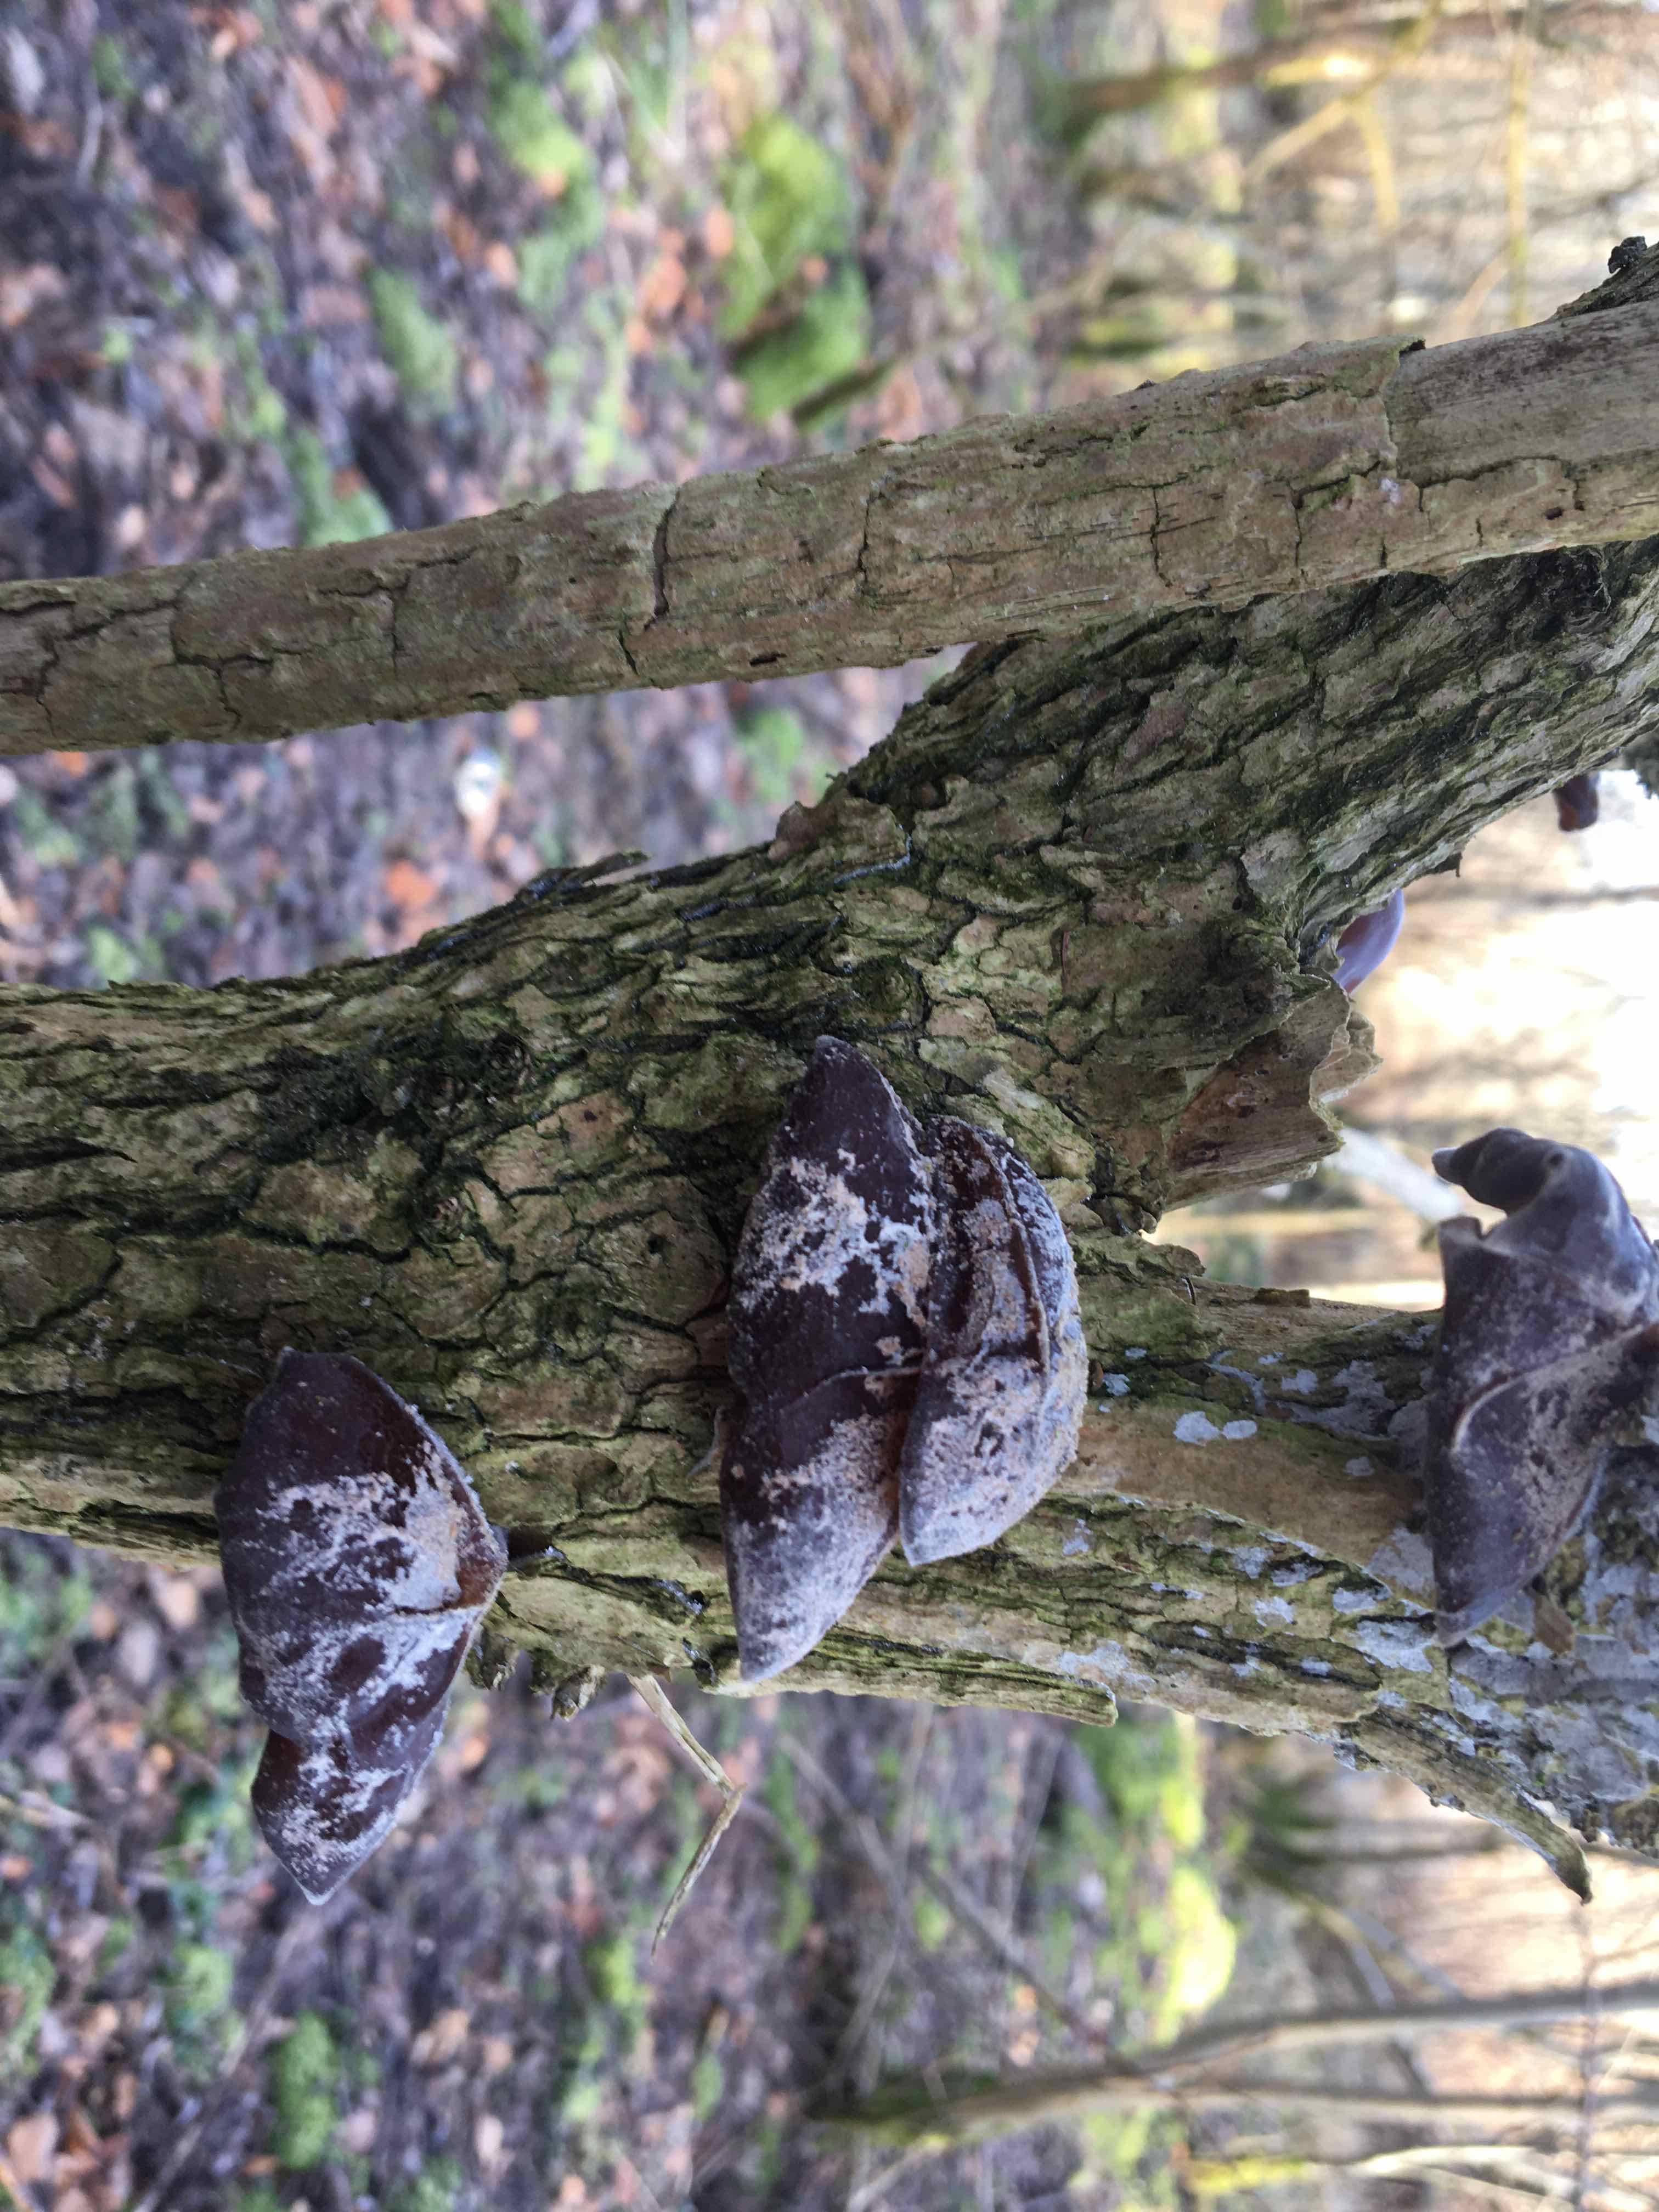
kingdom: Fungi
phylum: Basidiomycota
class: Agaricomycetes
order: Auriculariales
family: Auriculariaceae
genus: Auricularia
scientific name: Auricularia auricula-judae
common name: almindelig judasøre
